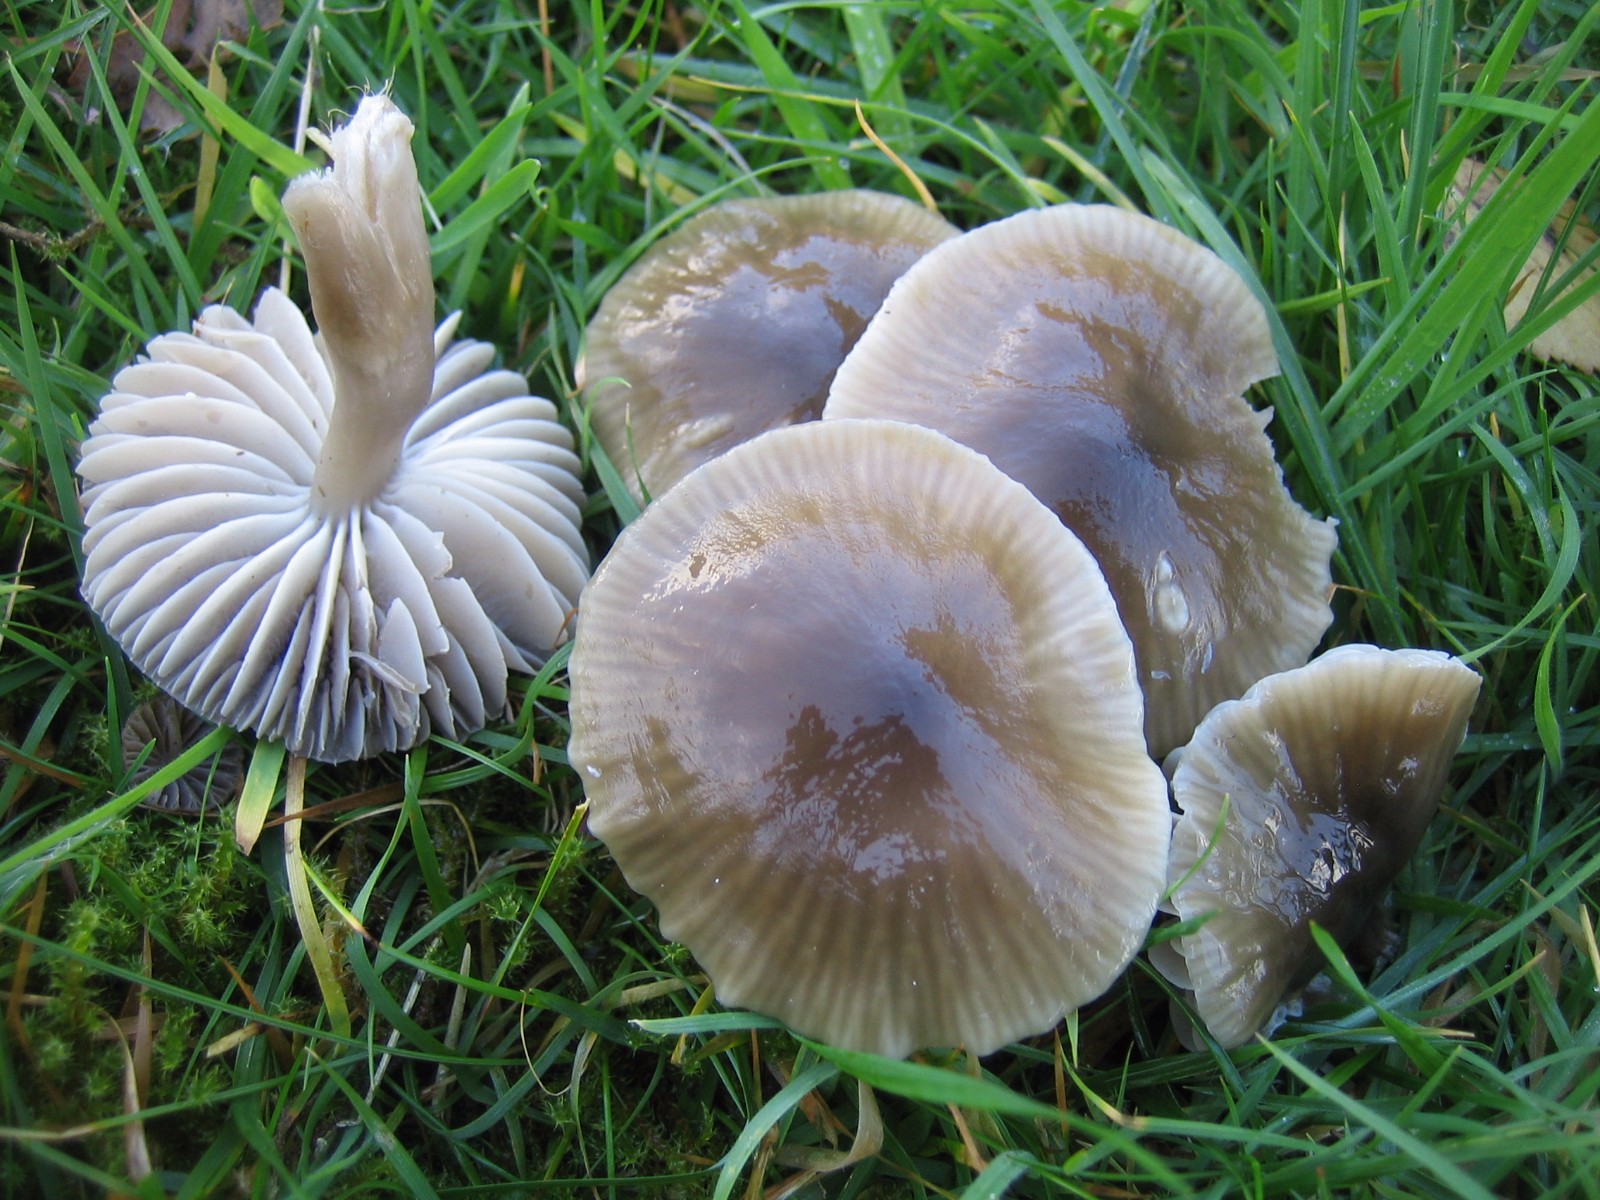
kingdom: Fungi
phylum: Basidiomycota
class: Agaricomycetes
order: Agaricales
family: Hygrophoraceae
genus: Gliophorus
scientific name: Gliophorus irrigatus
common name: slimet vokshat
